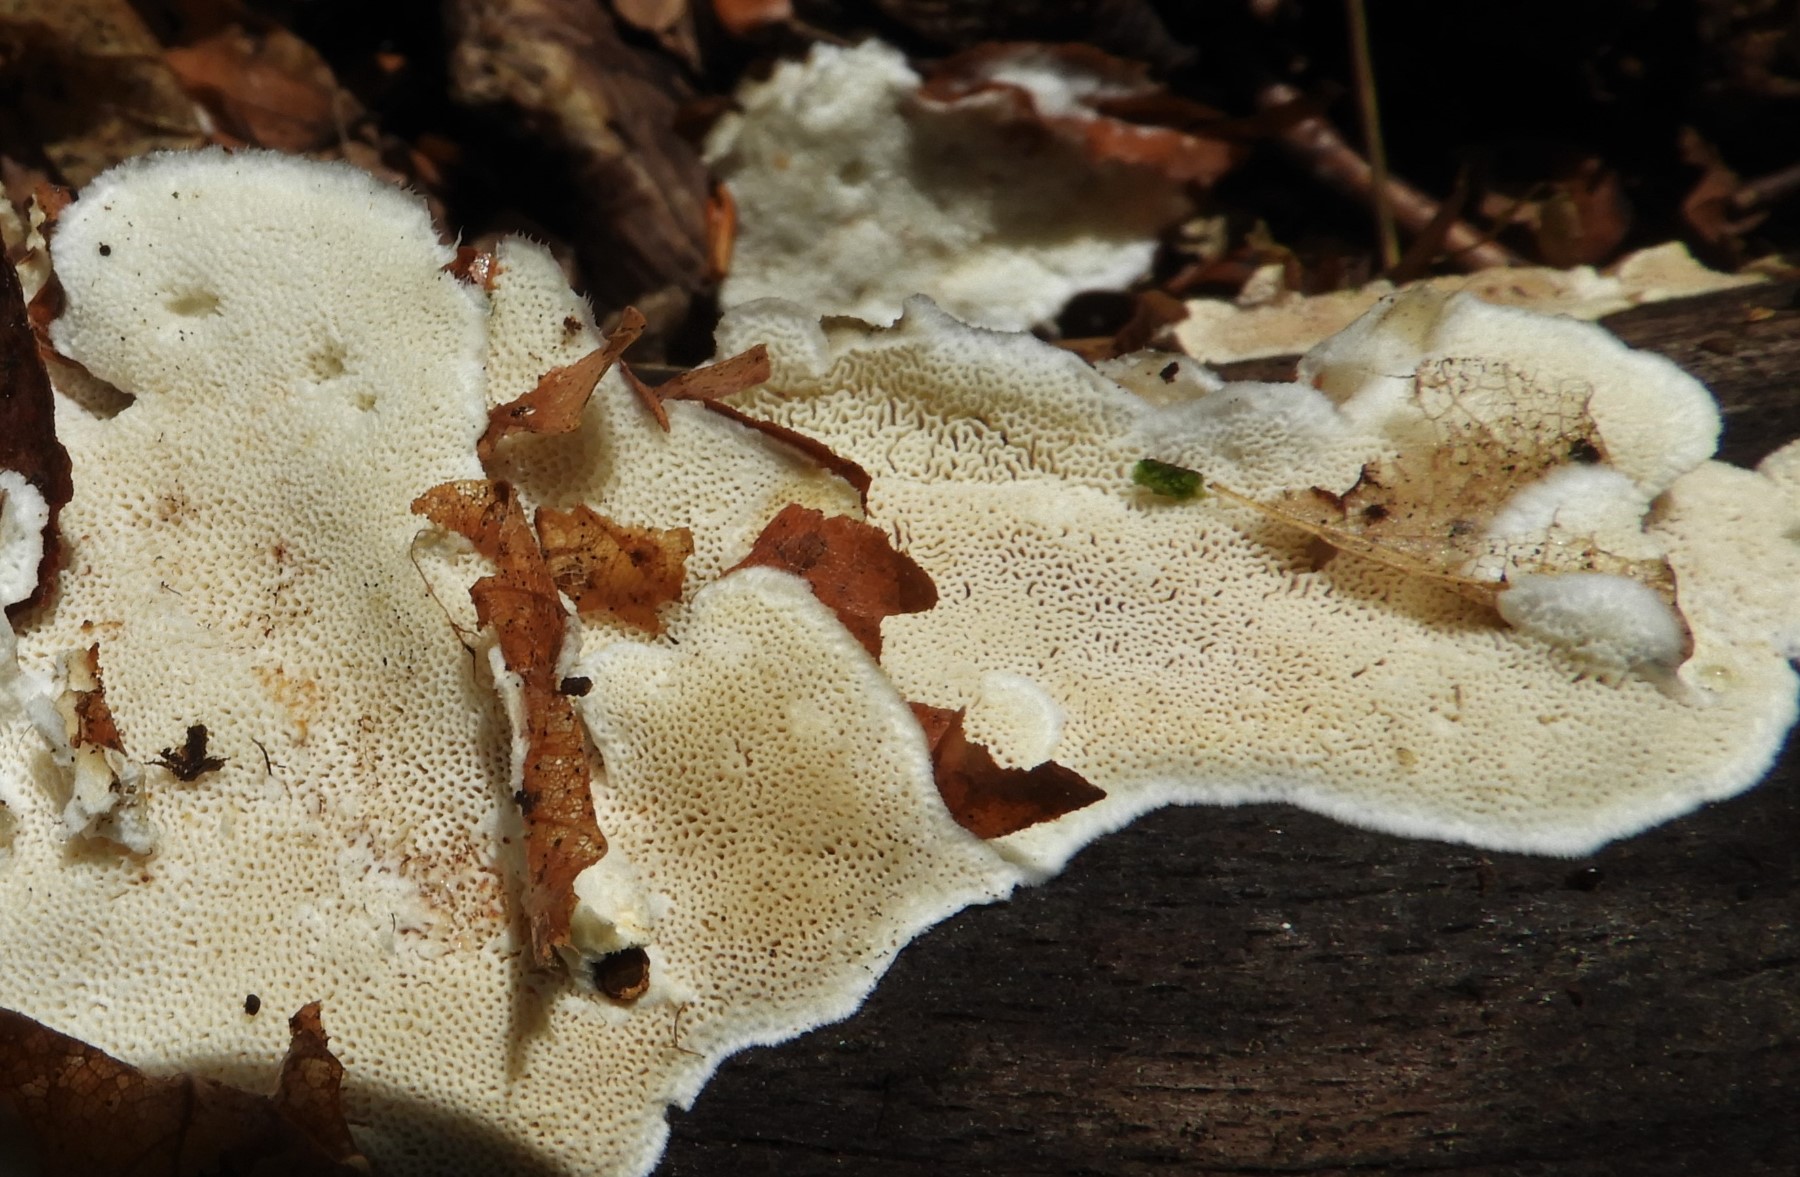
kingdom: Fungi
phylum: Basidiomycota
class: Agaricomycetes
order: Polyporales
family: Incrustoporiaceae
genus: Skeletocutis
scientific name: Skeletocutis nemoralis
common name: stor krystalporesvamp
